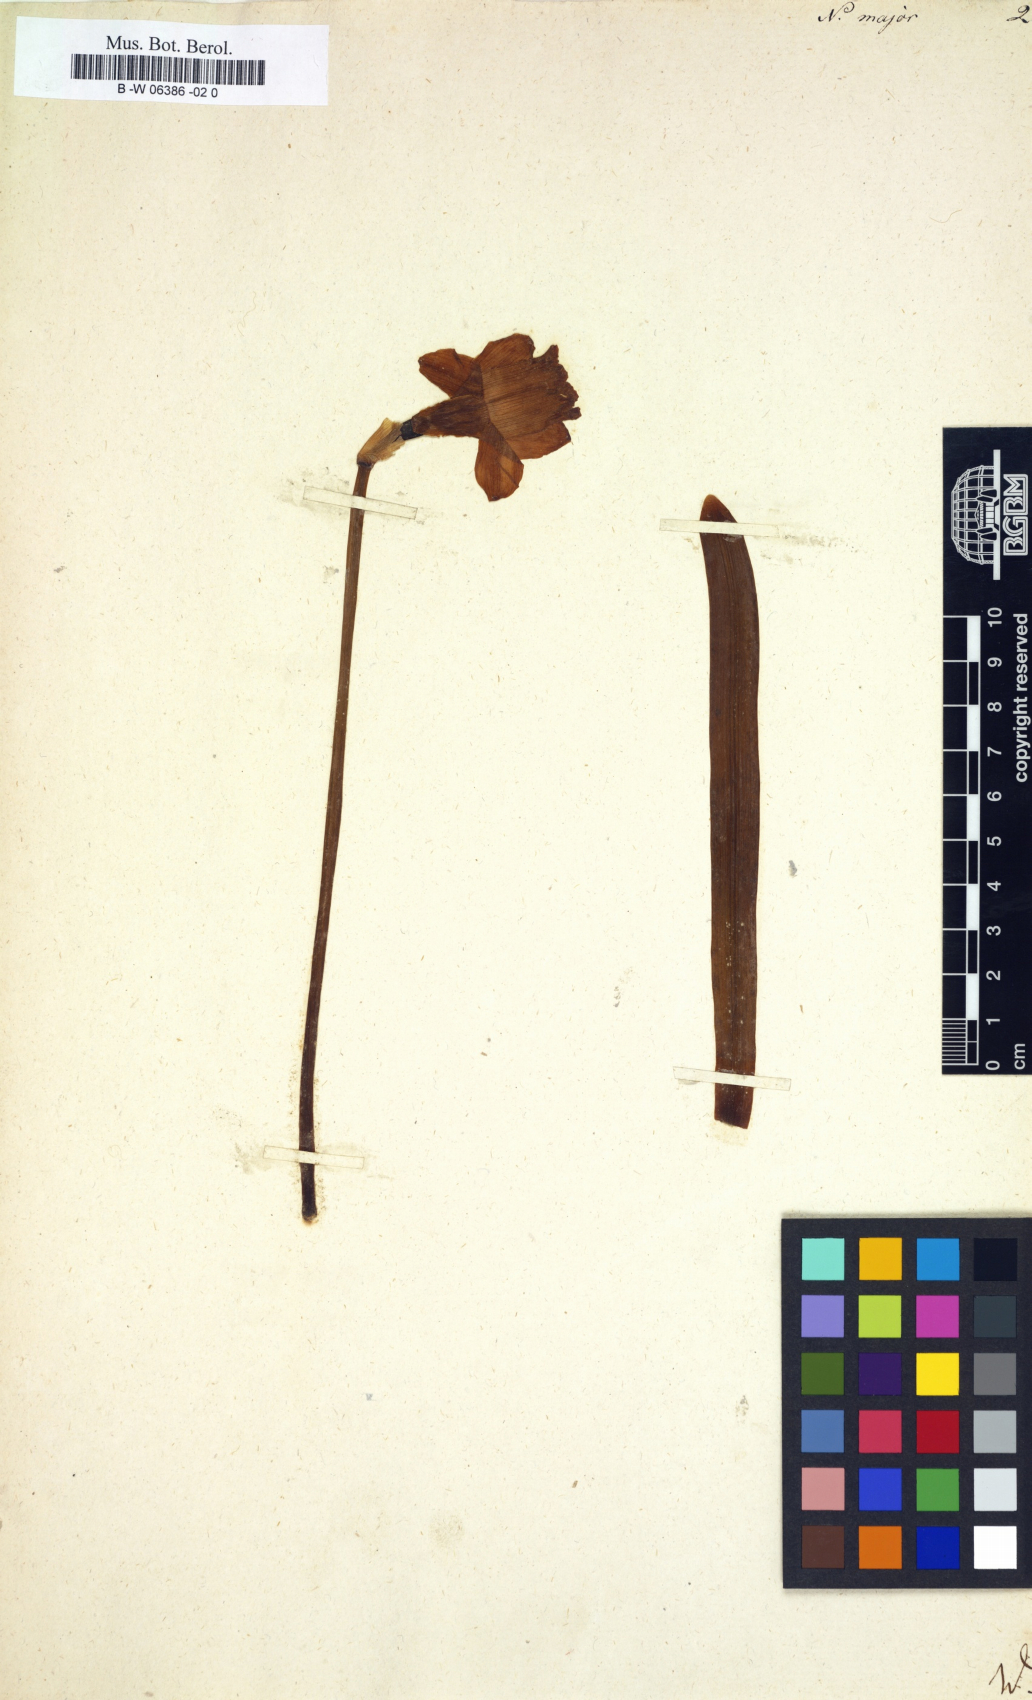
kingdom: Plantae
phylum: Tracheophyta
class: Liliopsida
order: Asparagales
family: Amaryllidaceae
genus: Narcissus
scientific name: Narcissus hispanicus
